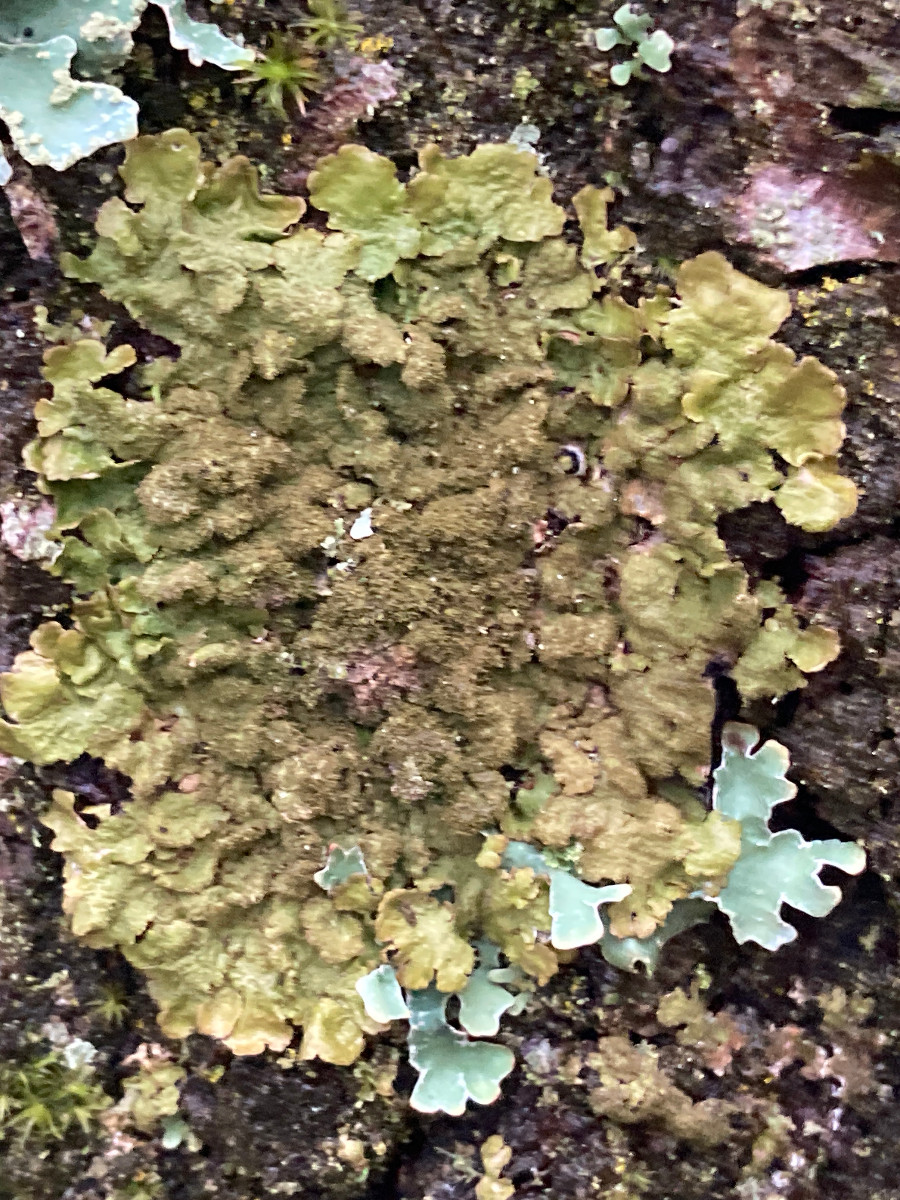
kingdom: Fungi
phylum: Ascomycota
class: Lecanoromycetes
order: Lecanorales
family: Parmeliaceae
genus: Melanelixia
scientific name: Melanelixia subaurifera
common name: guldpudret skållav
